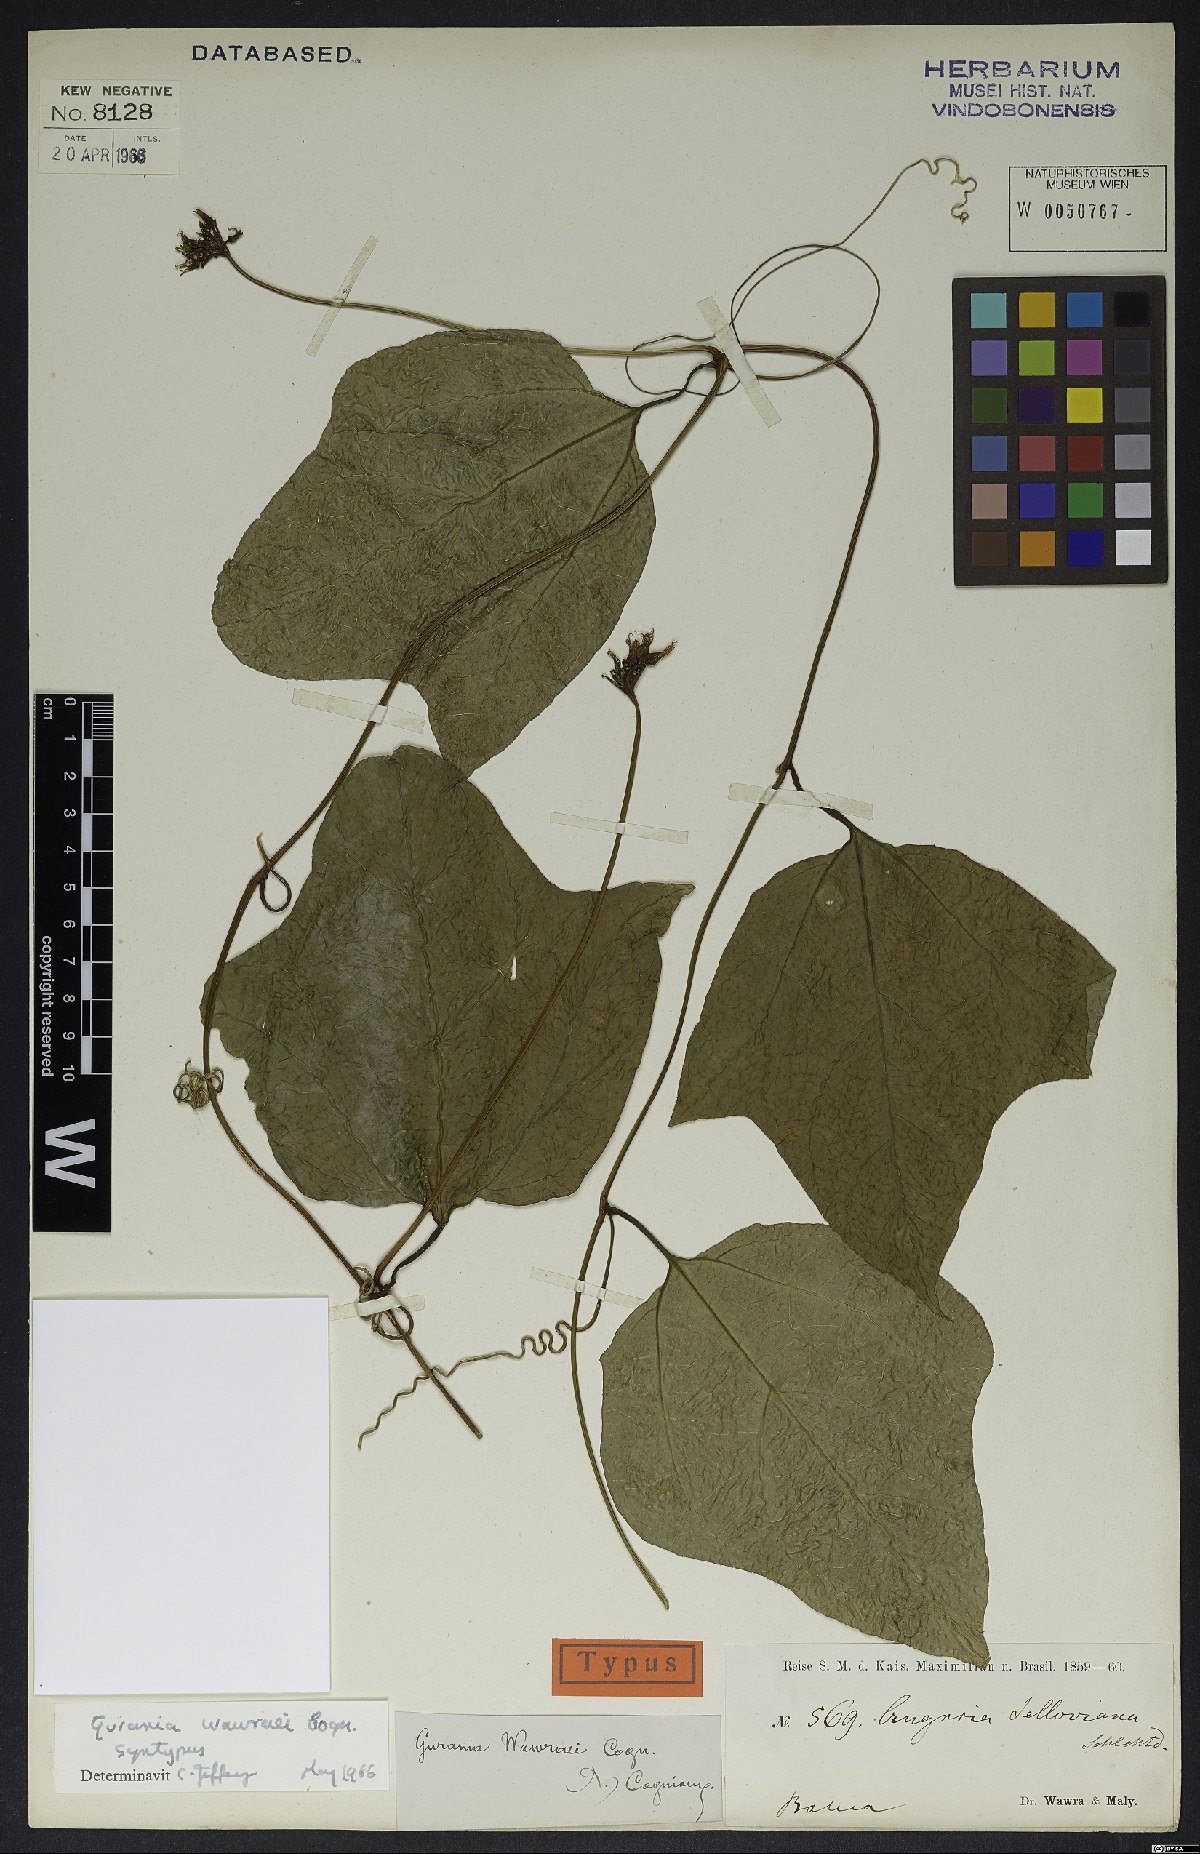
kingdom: Plantae
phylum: Tracheophyta
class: Magnoliopsida
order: Cucurbitales
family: Cucurbitaceae
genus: Gurania
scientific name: Gurania wawrae
